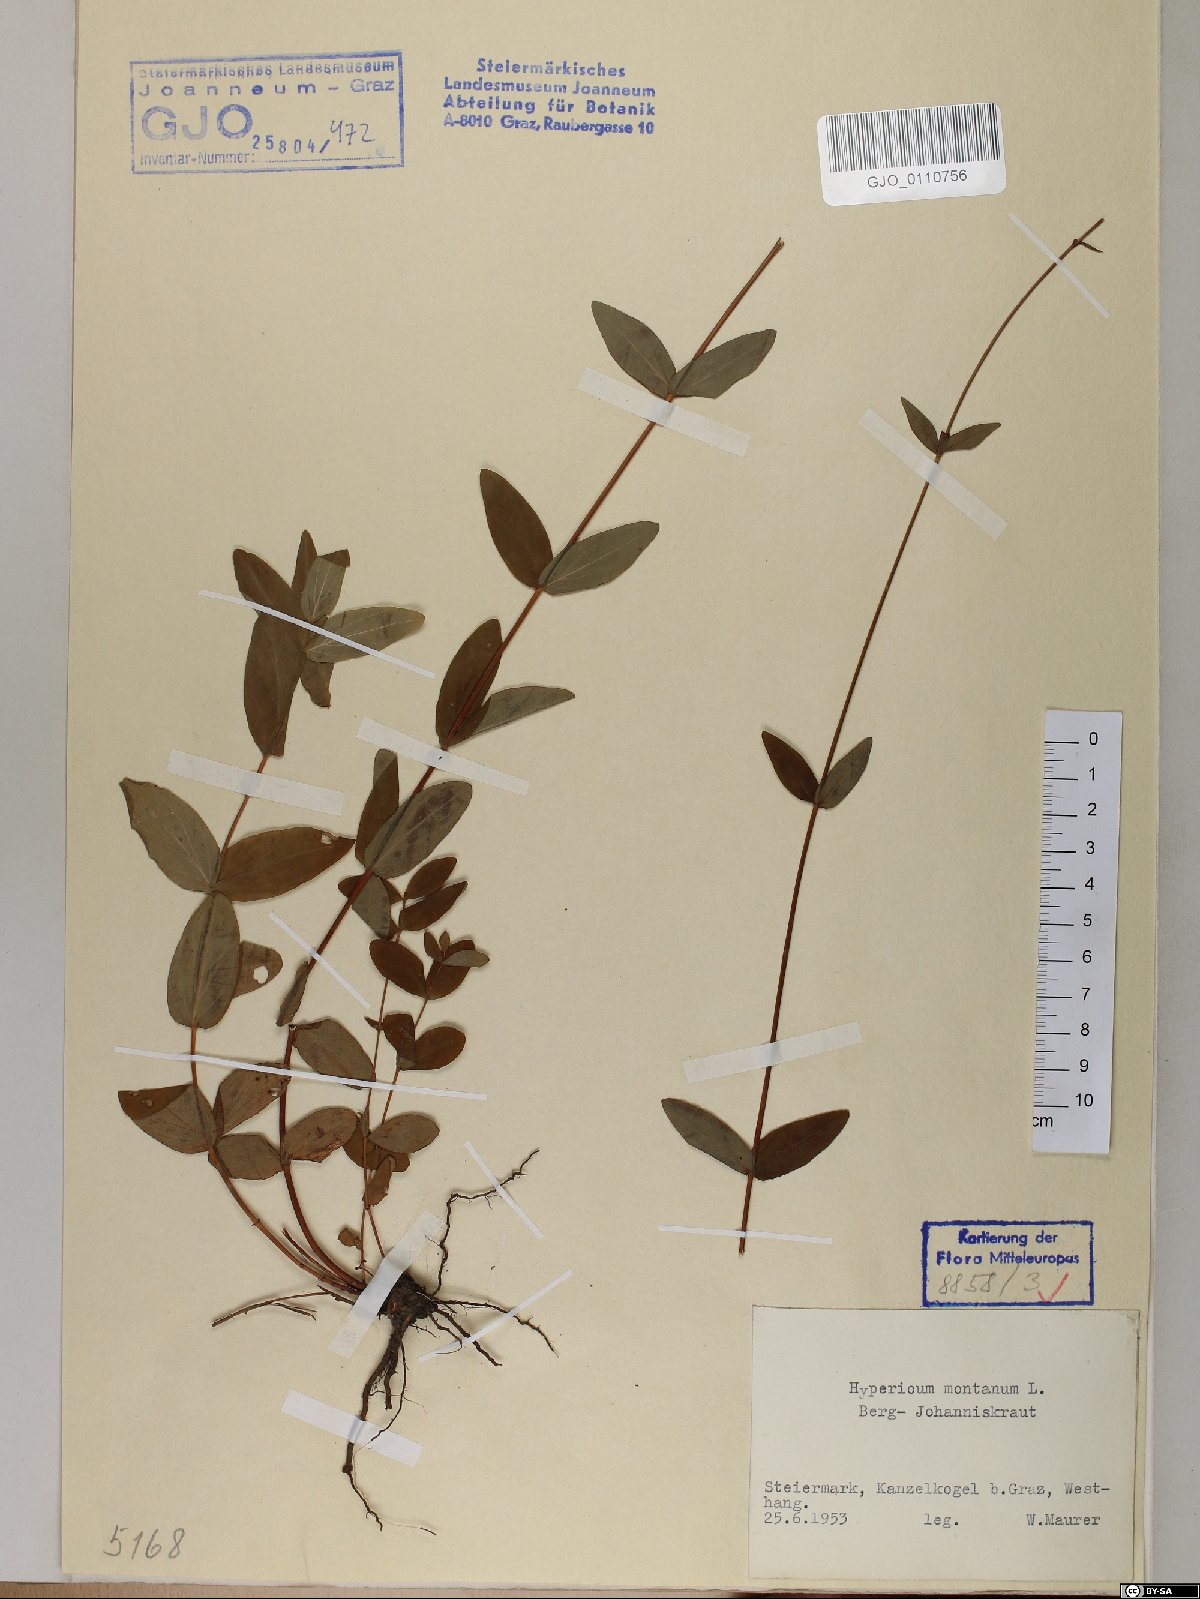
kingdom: Plantae
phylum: Tracheophyta
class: Magnoliopsida
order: Malpighiales
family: Hypericaceae
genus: Hypericum
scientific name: Hypericum montanum
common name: Pale st. john's-wort
